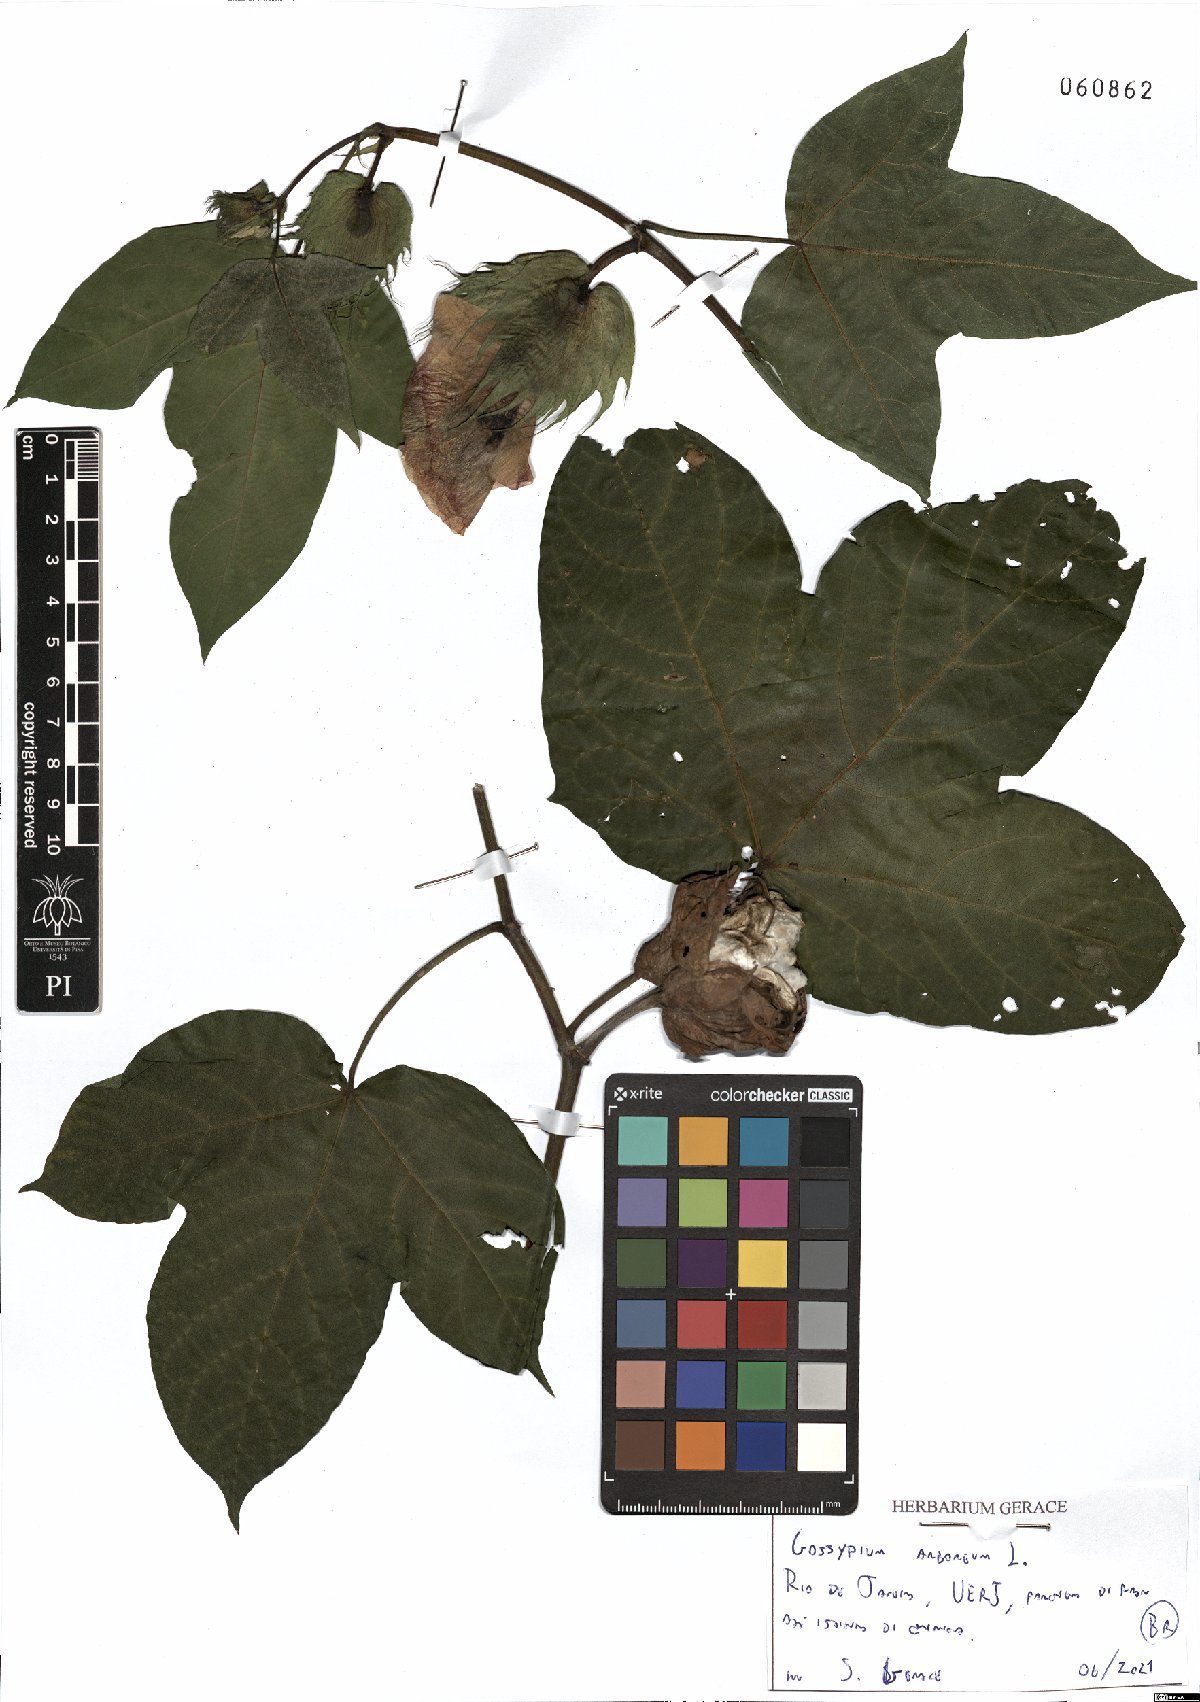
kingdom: Plantae
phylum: Tracheophyta
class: Magnoliopsida
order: Malvales
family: Malvaceae
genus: Gossypium
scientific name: Gossypium arboreum
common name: Tree cotton
